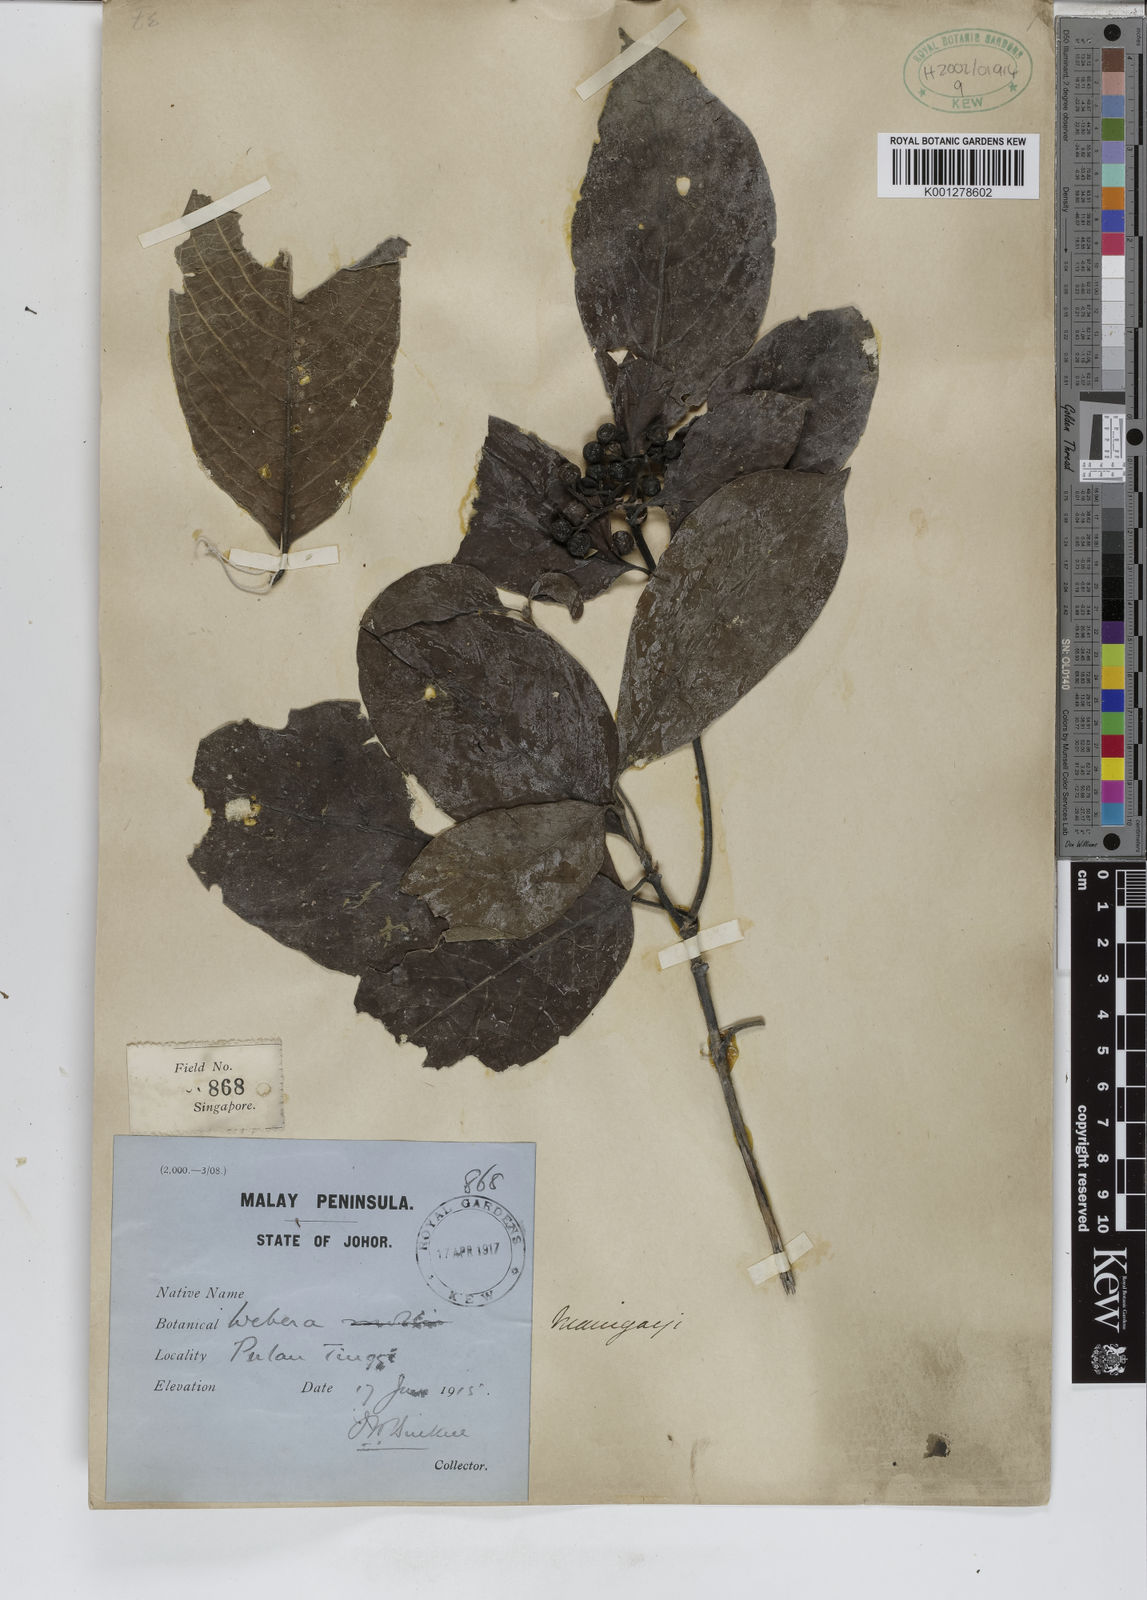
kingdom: Plantae
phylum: Tracheophyta
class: Magnoliopsida
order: Gentianales
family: Rubiaceae
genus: Tarenna
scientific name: Tarenna maingayi
